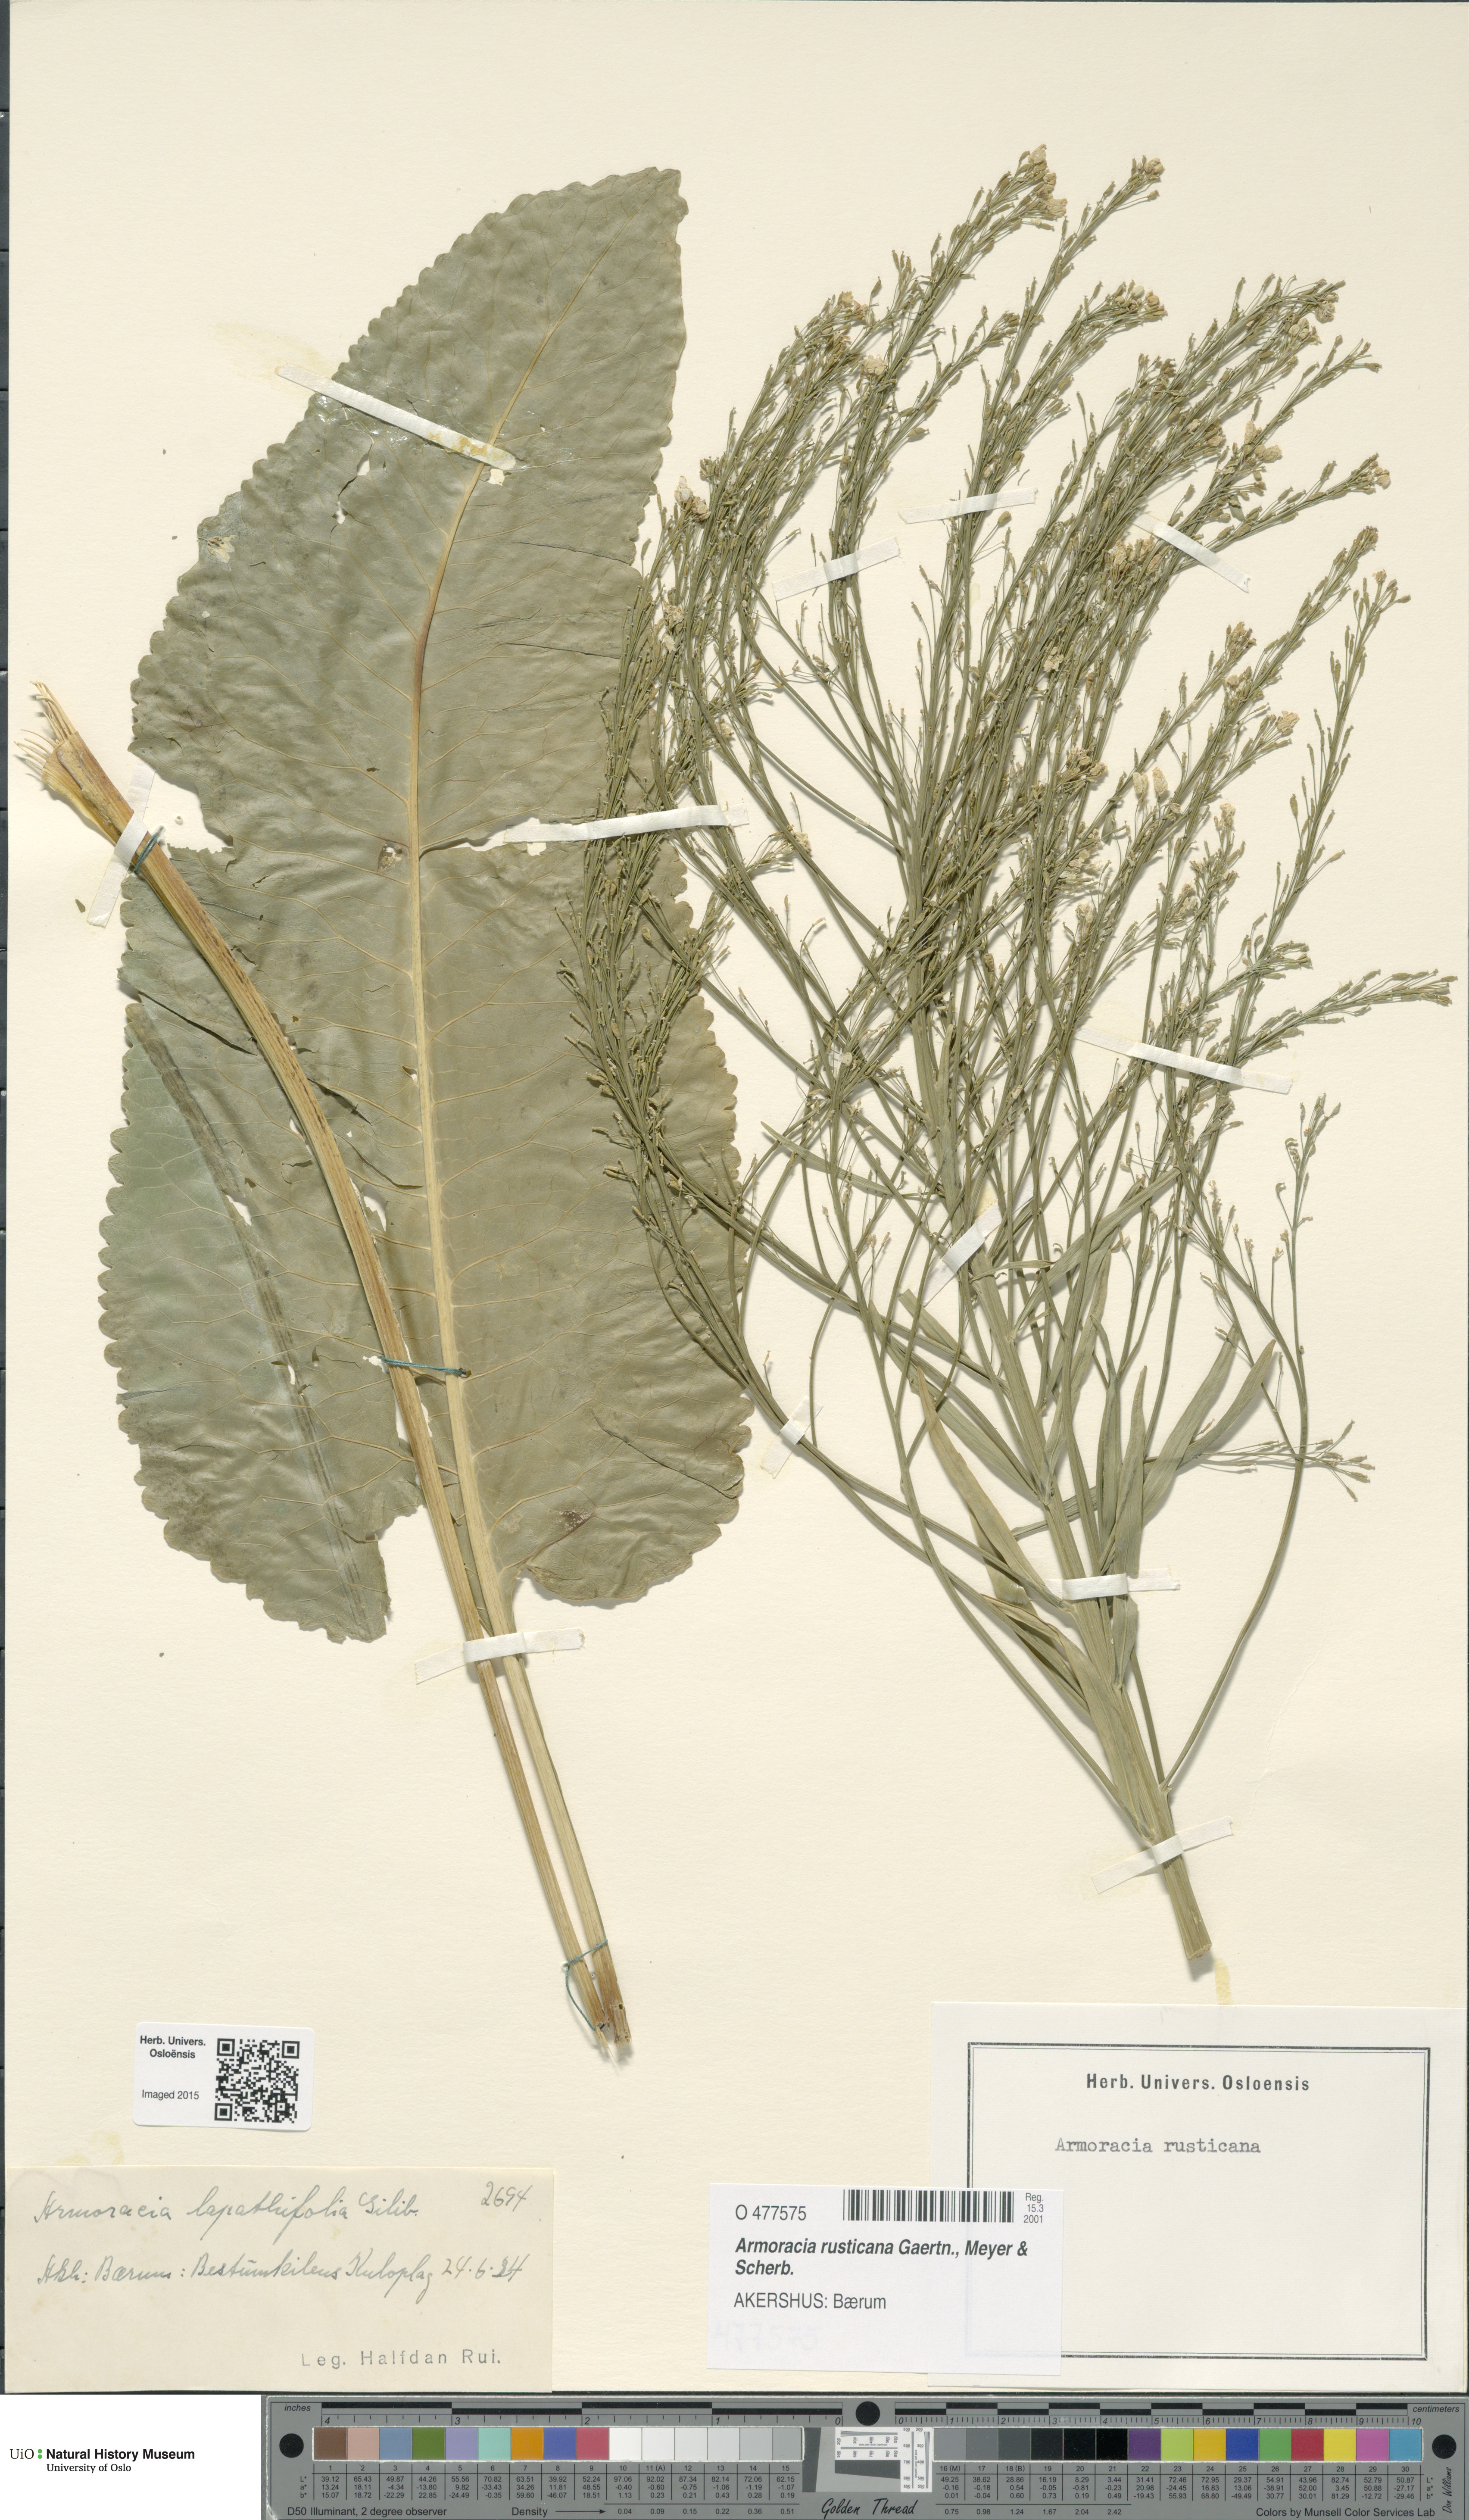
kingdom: Plantae
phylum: Tracheophyta
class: Magnoliopsida
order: Brassicales
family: Brassicaceae
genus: Armoracia
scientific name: Armoracia rusticana
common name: Horseradish
